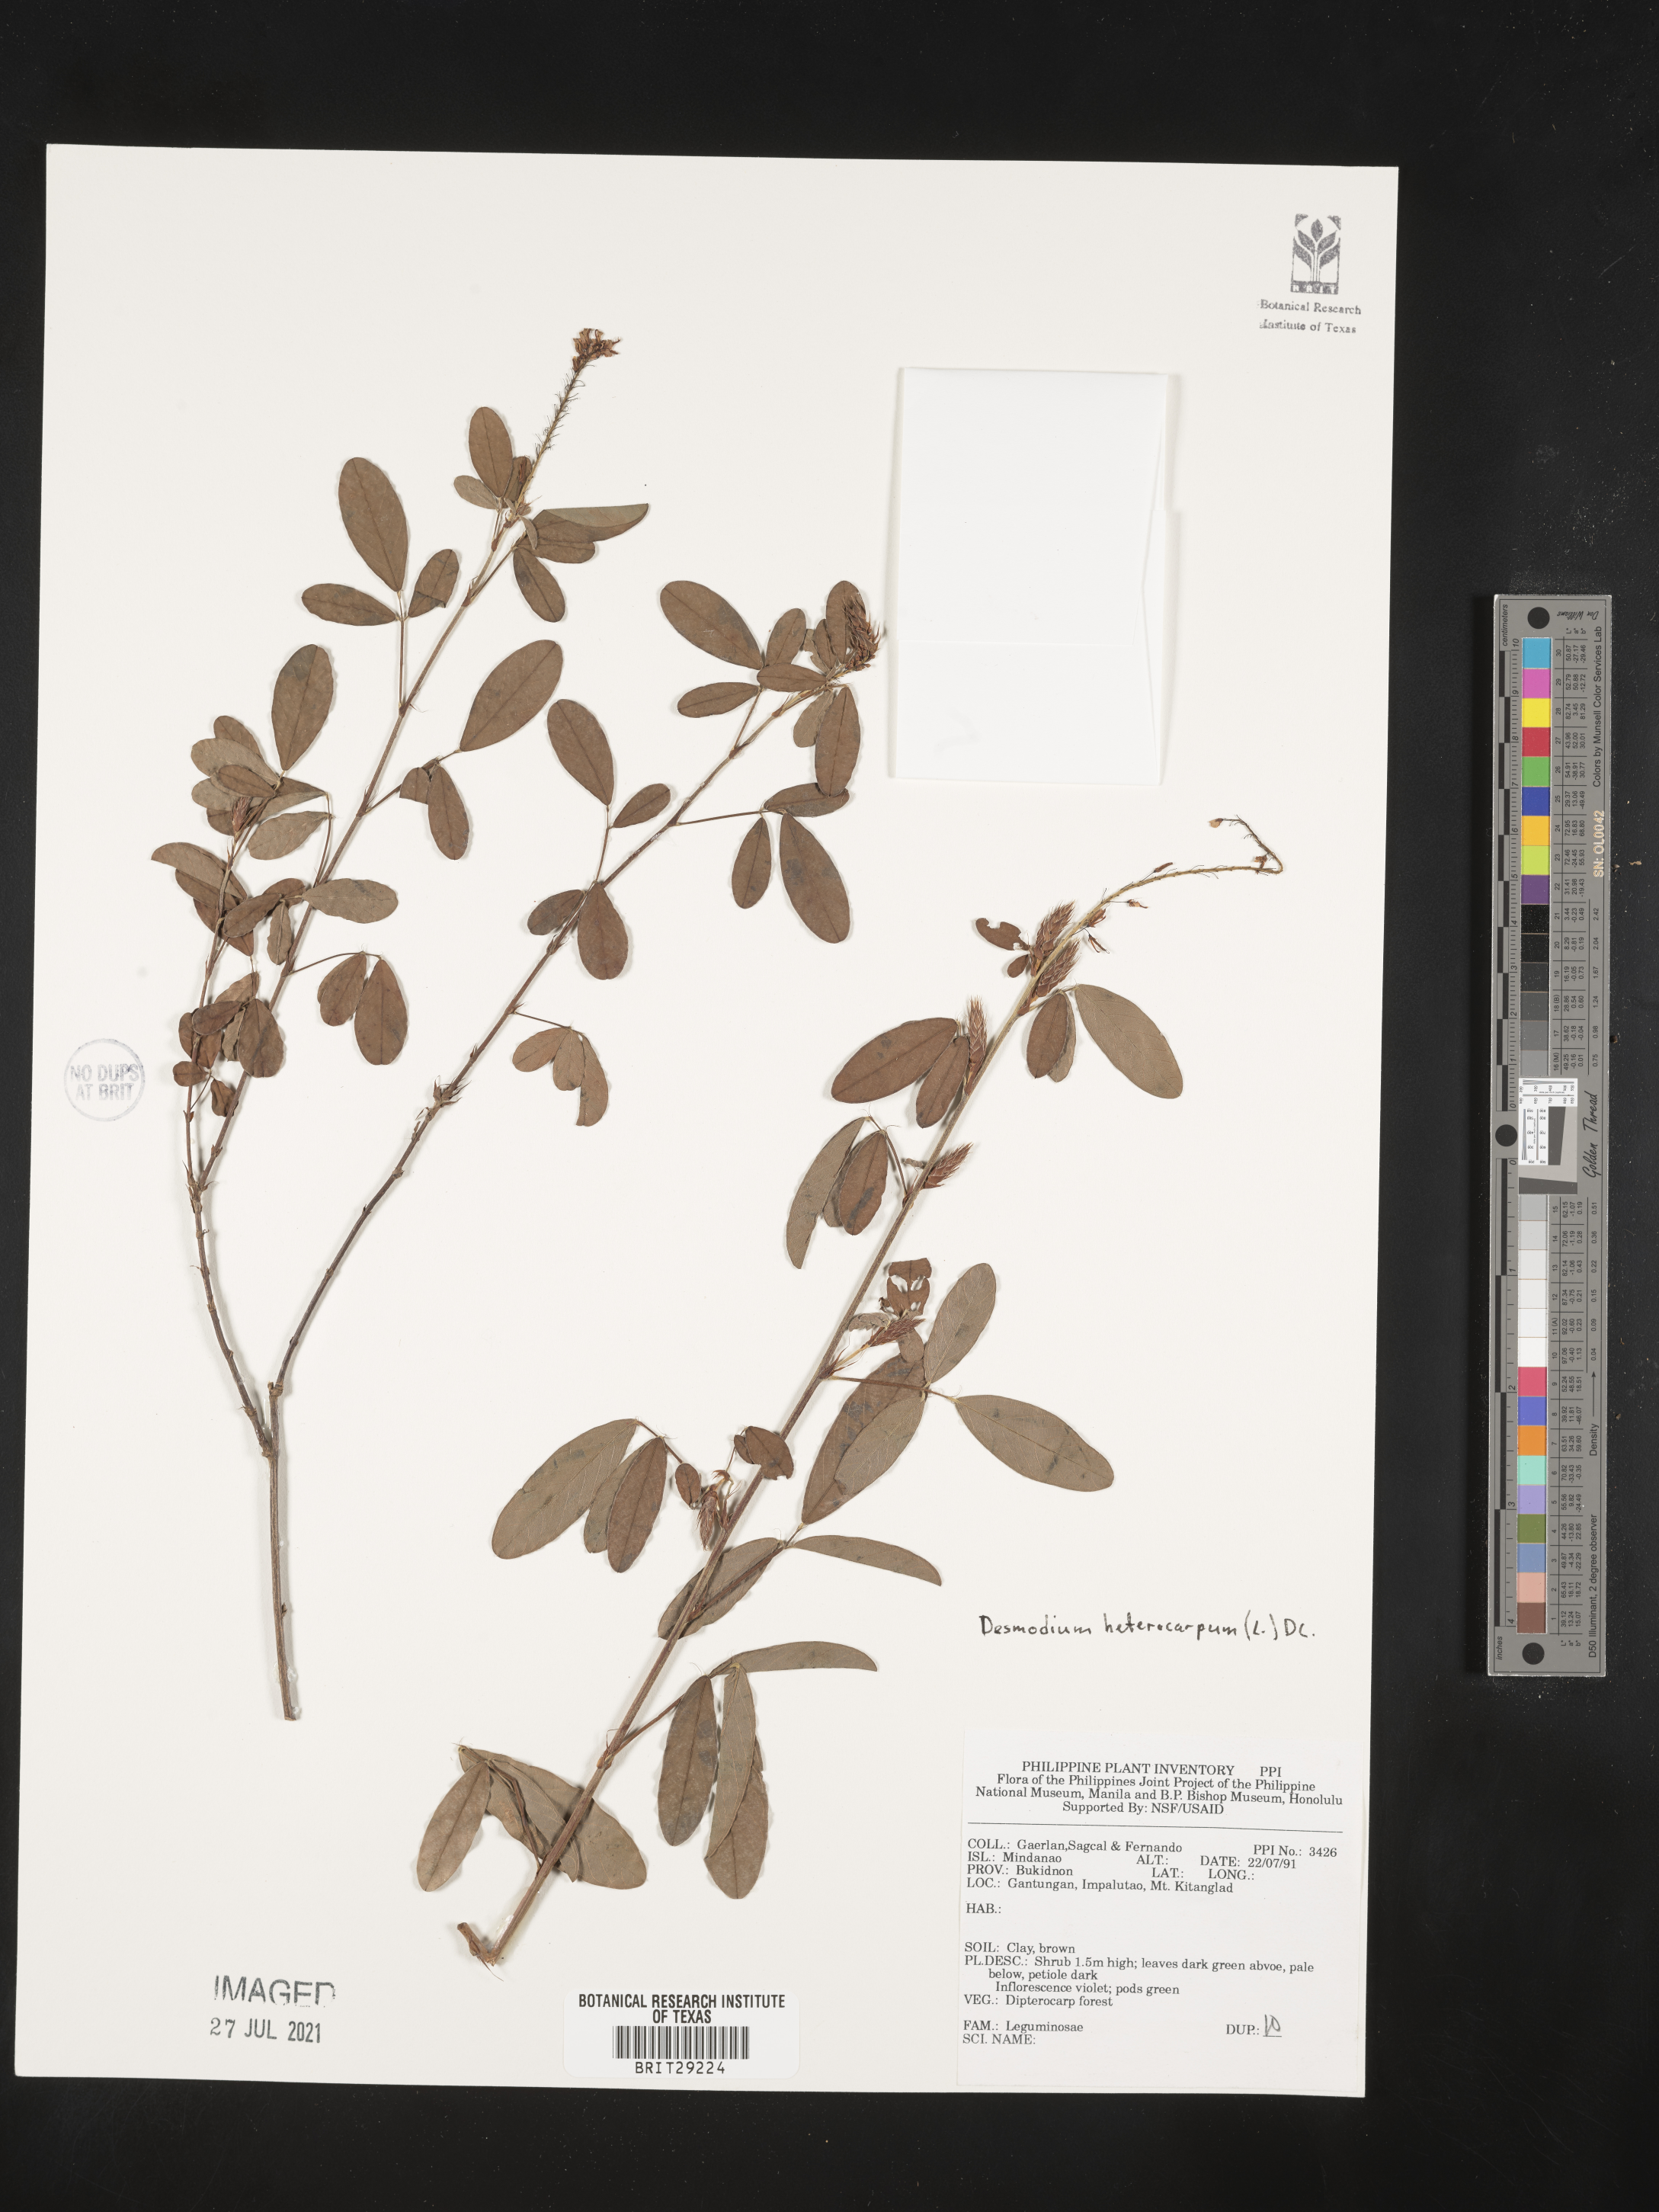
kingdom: Plantae
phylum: Tracheophyta
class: Magnoliopsida
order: Fabales
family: Fabaceae
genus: Grona
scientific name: Grona heterocarpos
